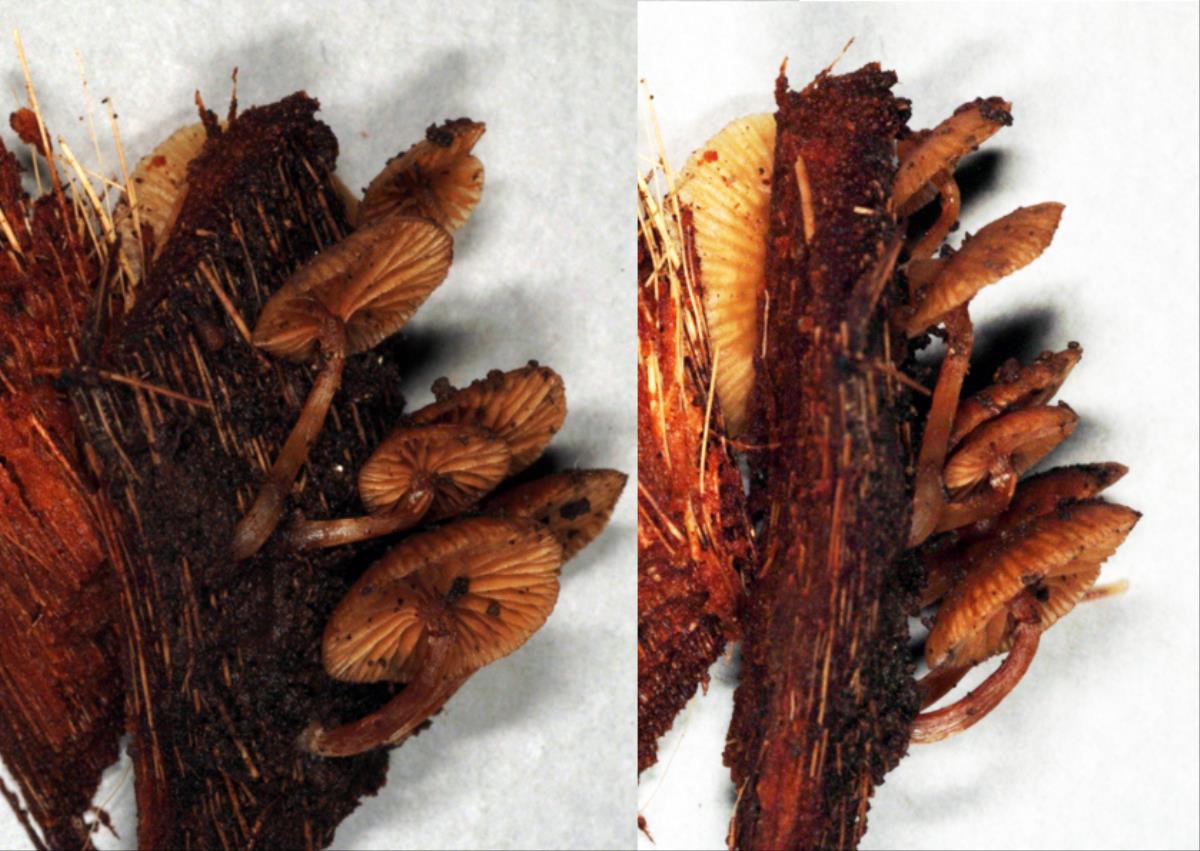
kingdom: Fungi
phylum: Basidiomycota
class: Agaricomycetes
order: Agaricales
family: Hymenogastraceae
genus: Galerina
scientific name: Galerina nana
